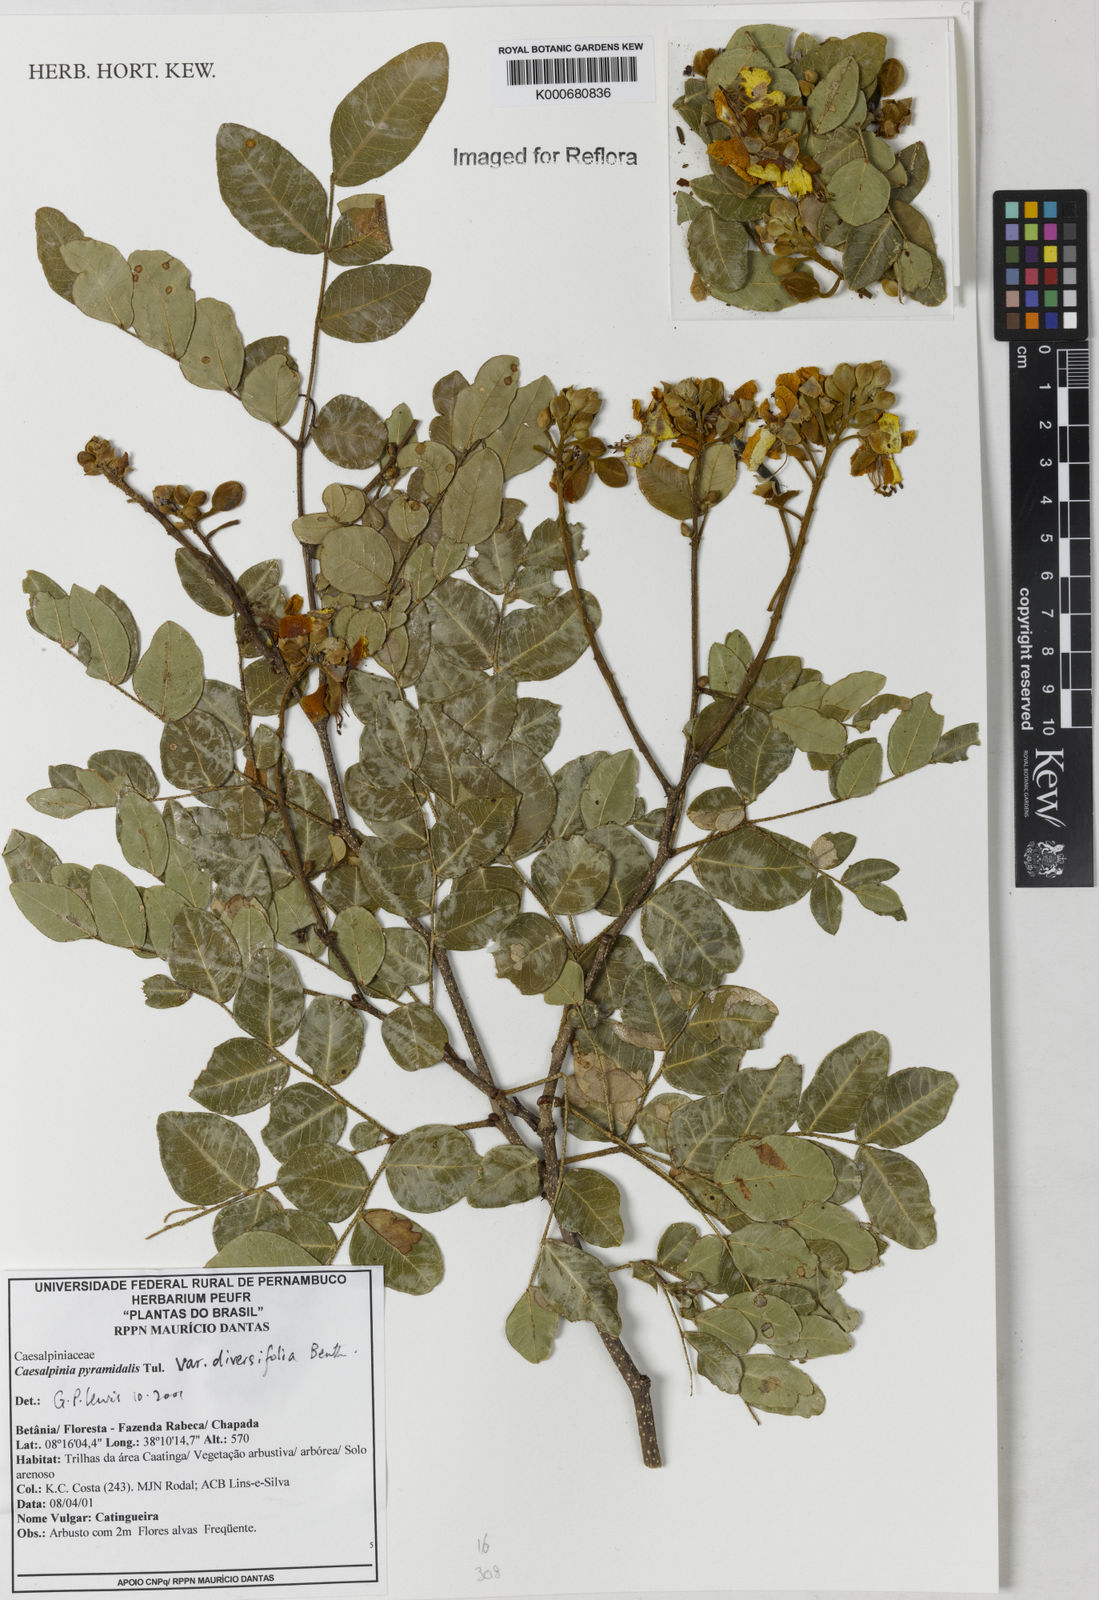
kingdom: Plantae
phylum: Tracheophyta
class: Magnoliopsida
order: Fabales
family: Fabaceae
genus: Cenostigma
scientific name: Cenostigma diversifolium
